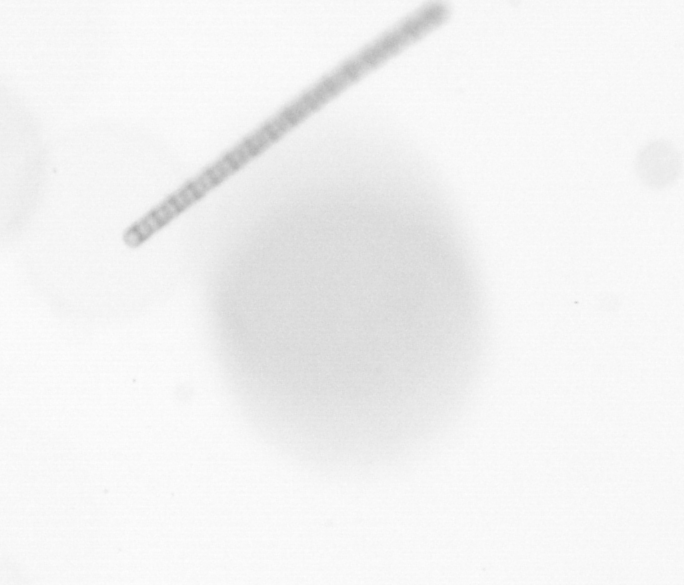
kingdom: Chromista
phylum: Ochrophyta
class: Bacillariophyceae
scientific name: Bacillariophyceae
